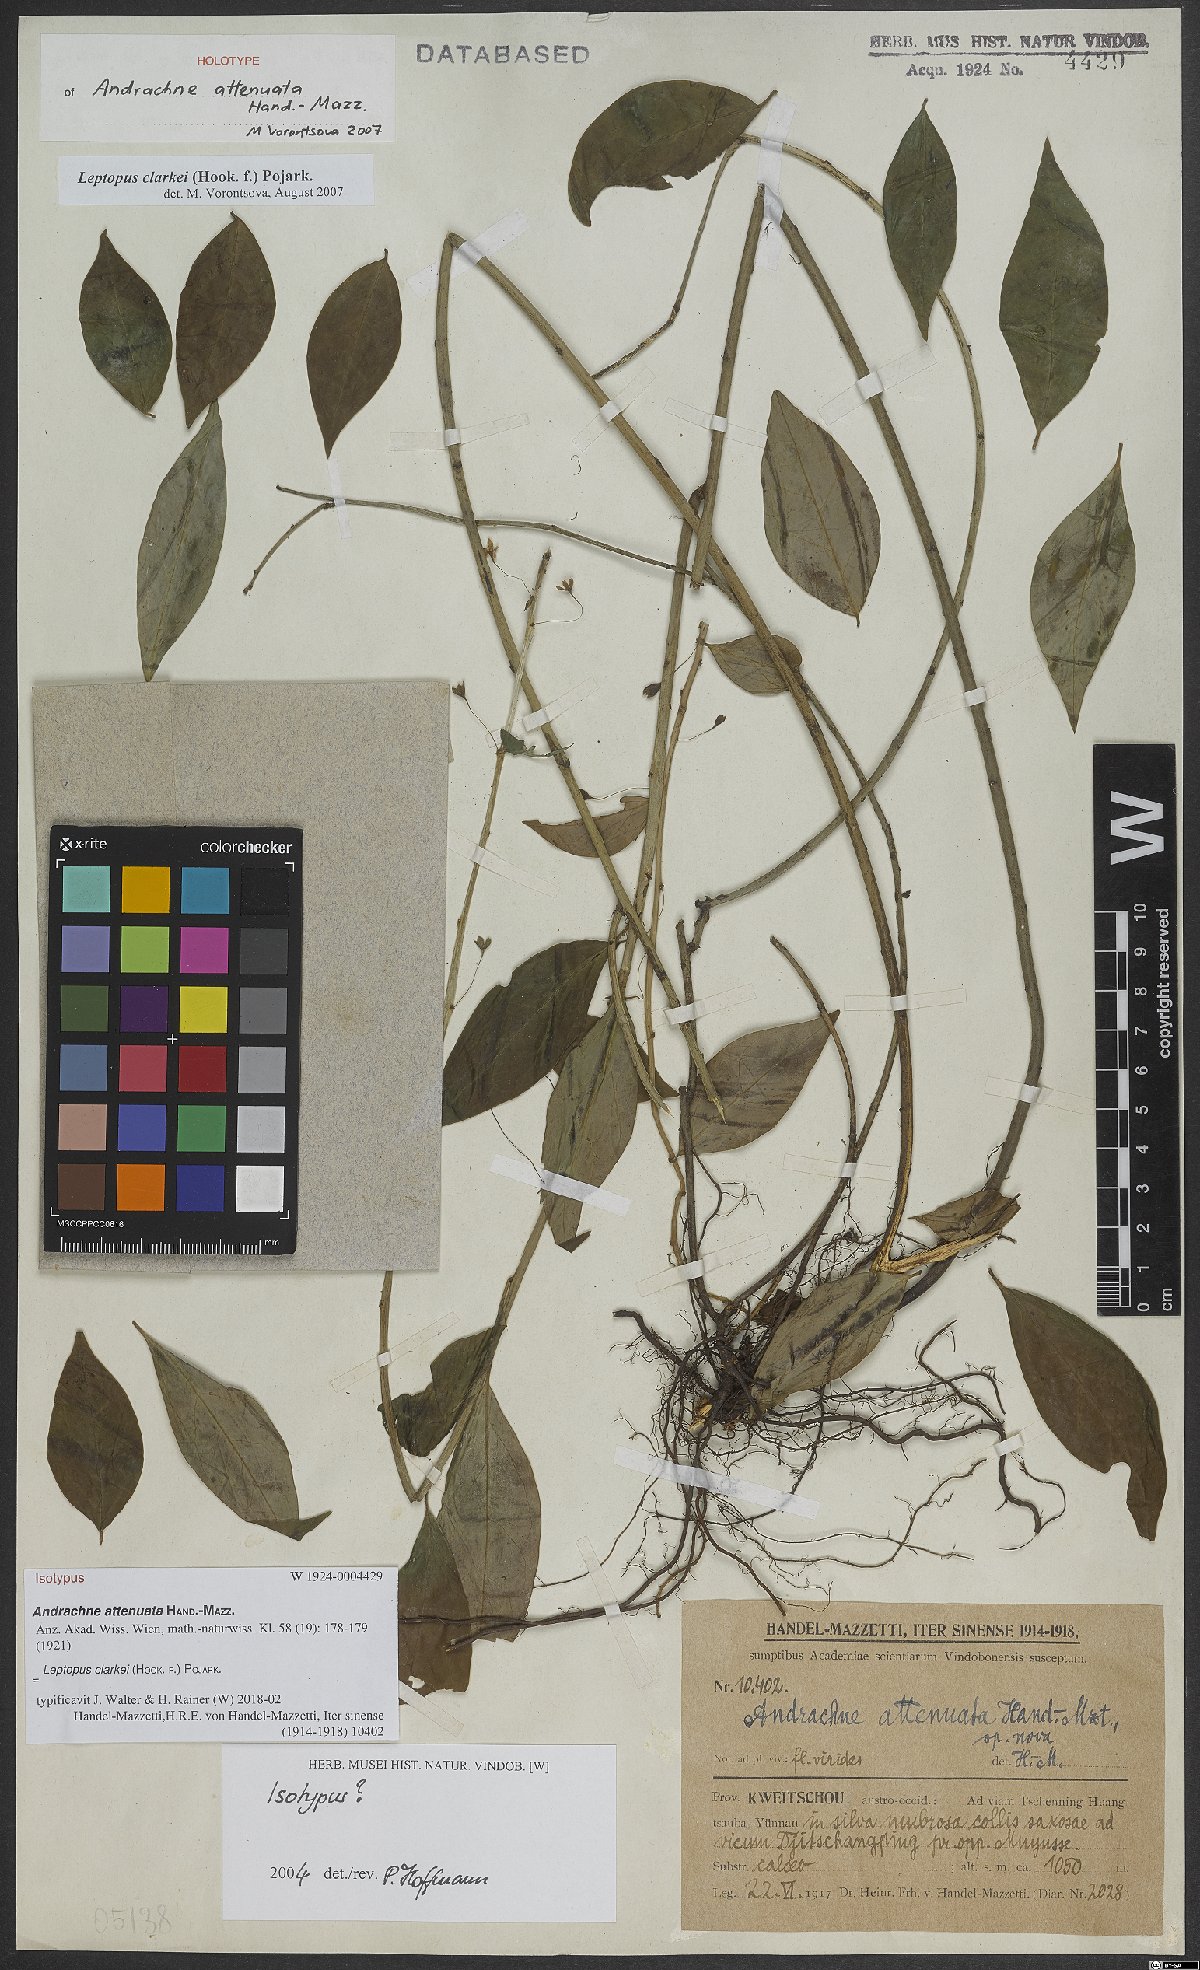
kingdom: Plantae
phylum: Tracheophyta
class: Magnoliopsida
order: Malpighiales
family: Phyllanthaceae
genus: Leptopus
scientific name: Leptopus clarkei
